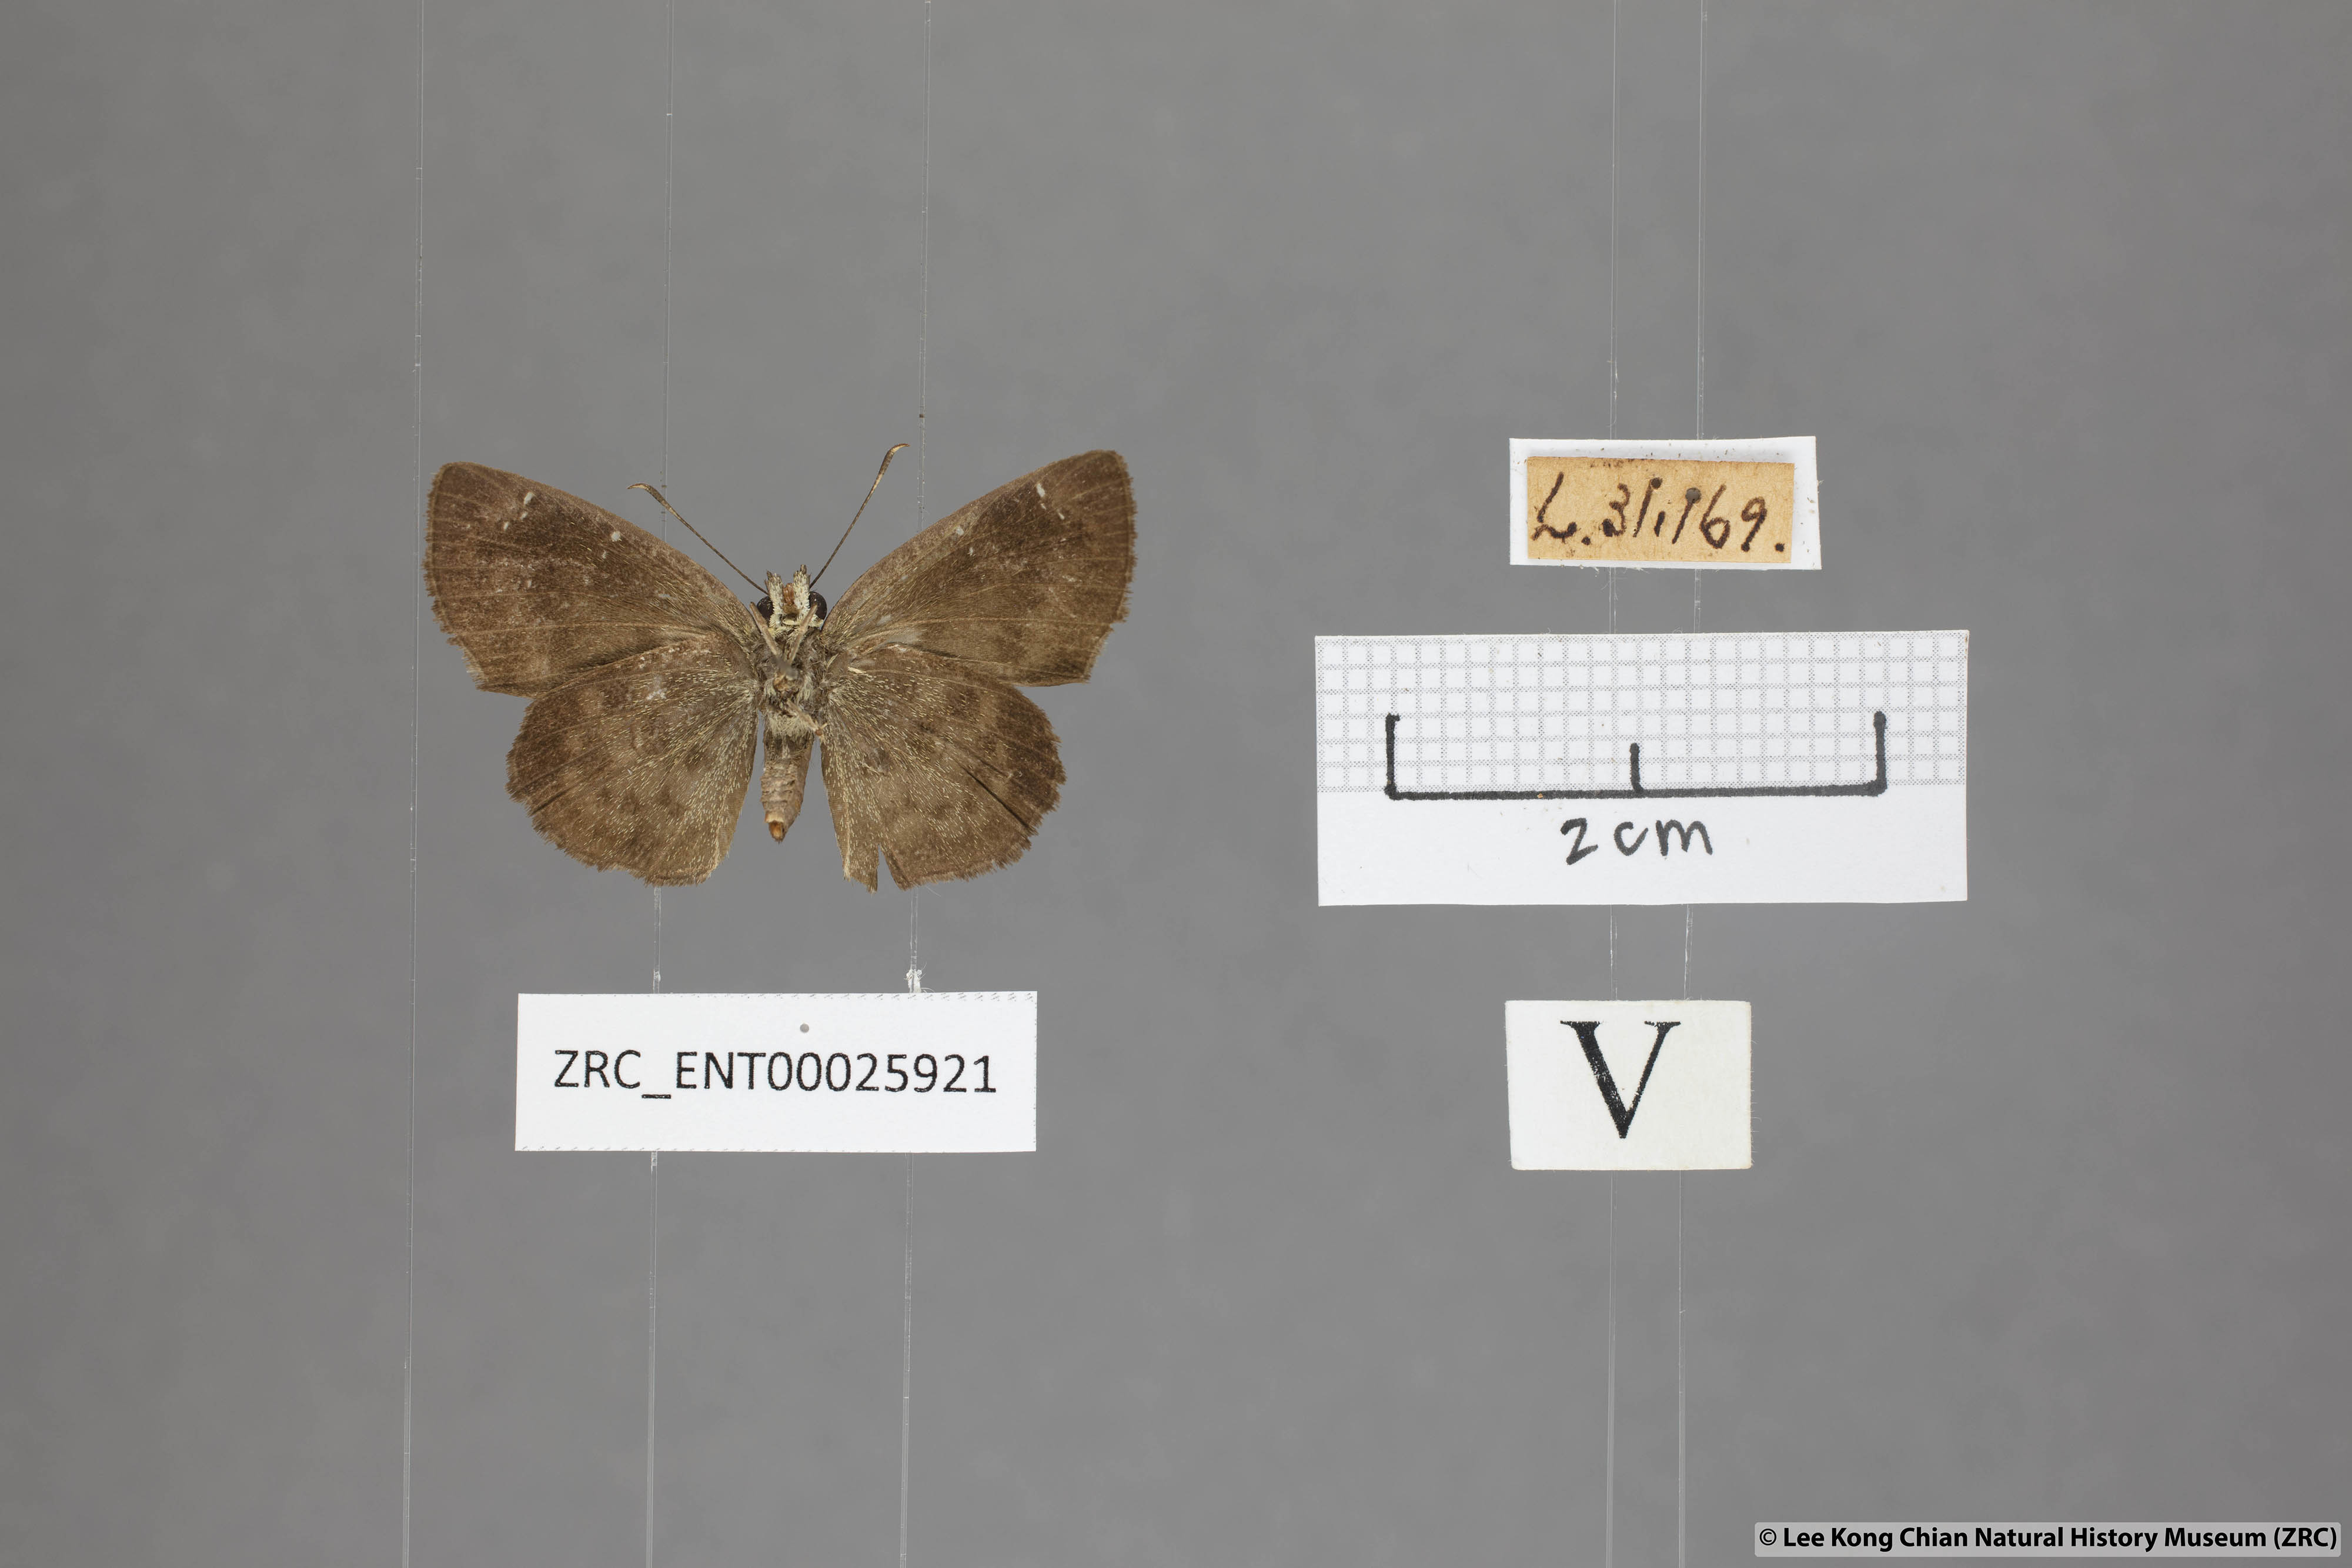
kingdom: Animalia
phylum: Arthropoda
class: Insecta
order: Lepidoptera
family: Hesperiidae
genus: Sarangesa
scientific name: Sarangesa dasahara
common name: Common small flat
